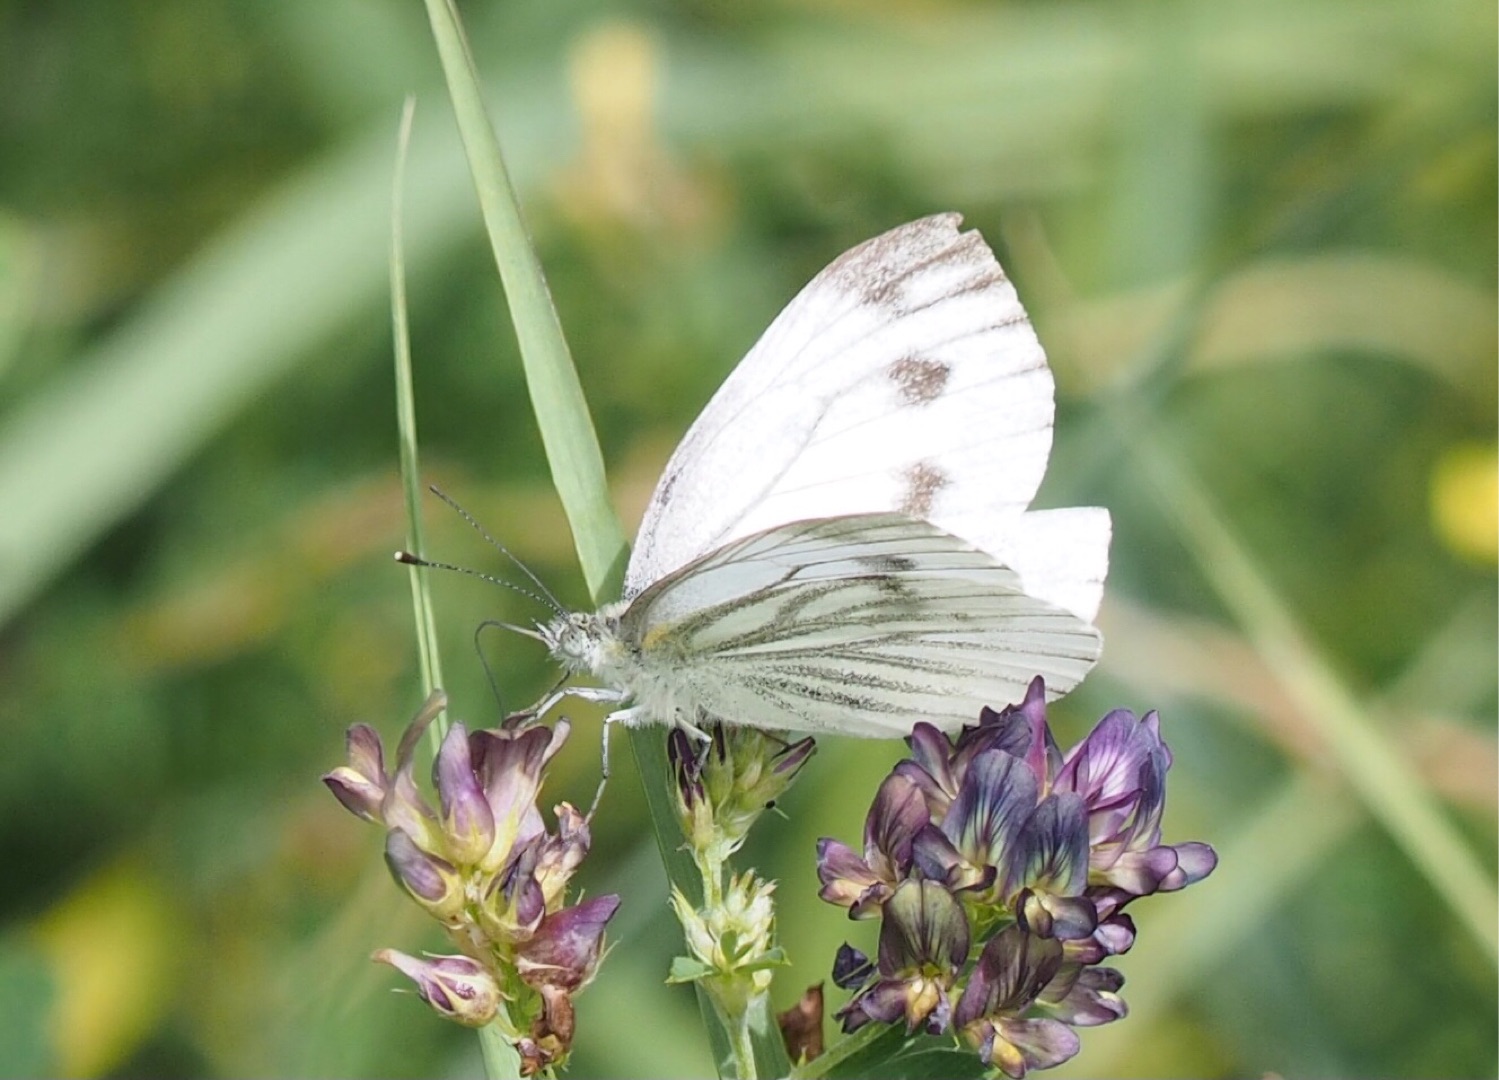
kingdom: Animalia
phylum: Arthropoda
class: Insecta
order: Lepidoptera
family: Pieridae
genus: Pieris
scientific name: Pieris napi
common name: Grønåret kålsommerfugl
